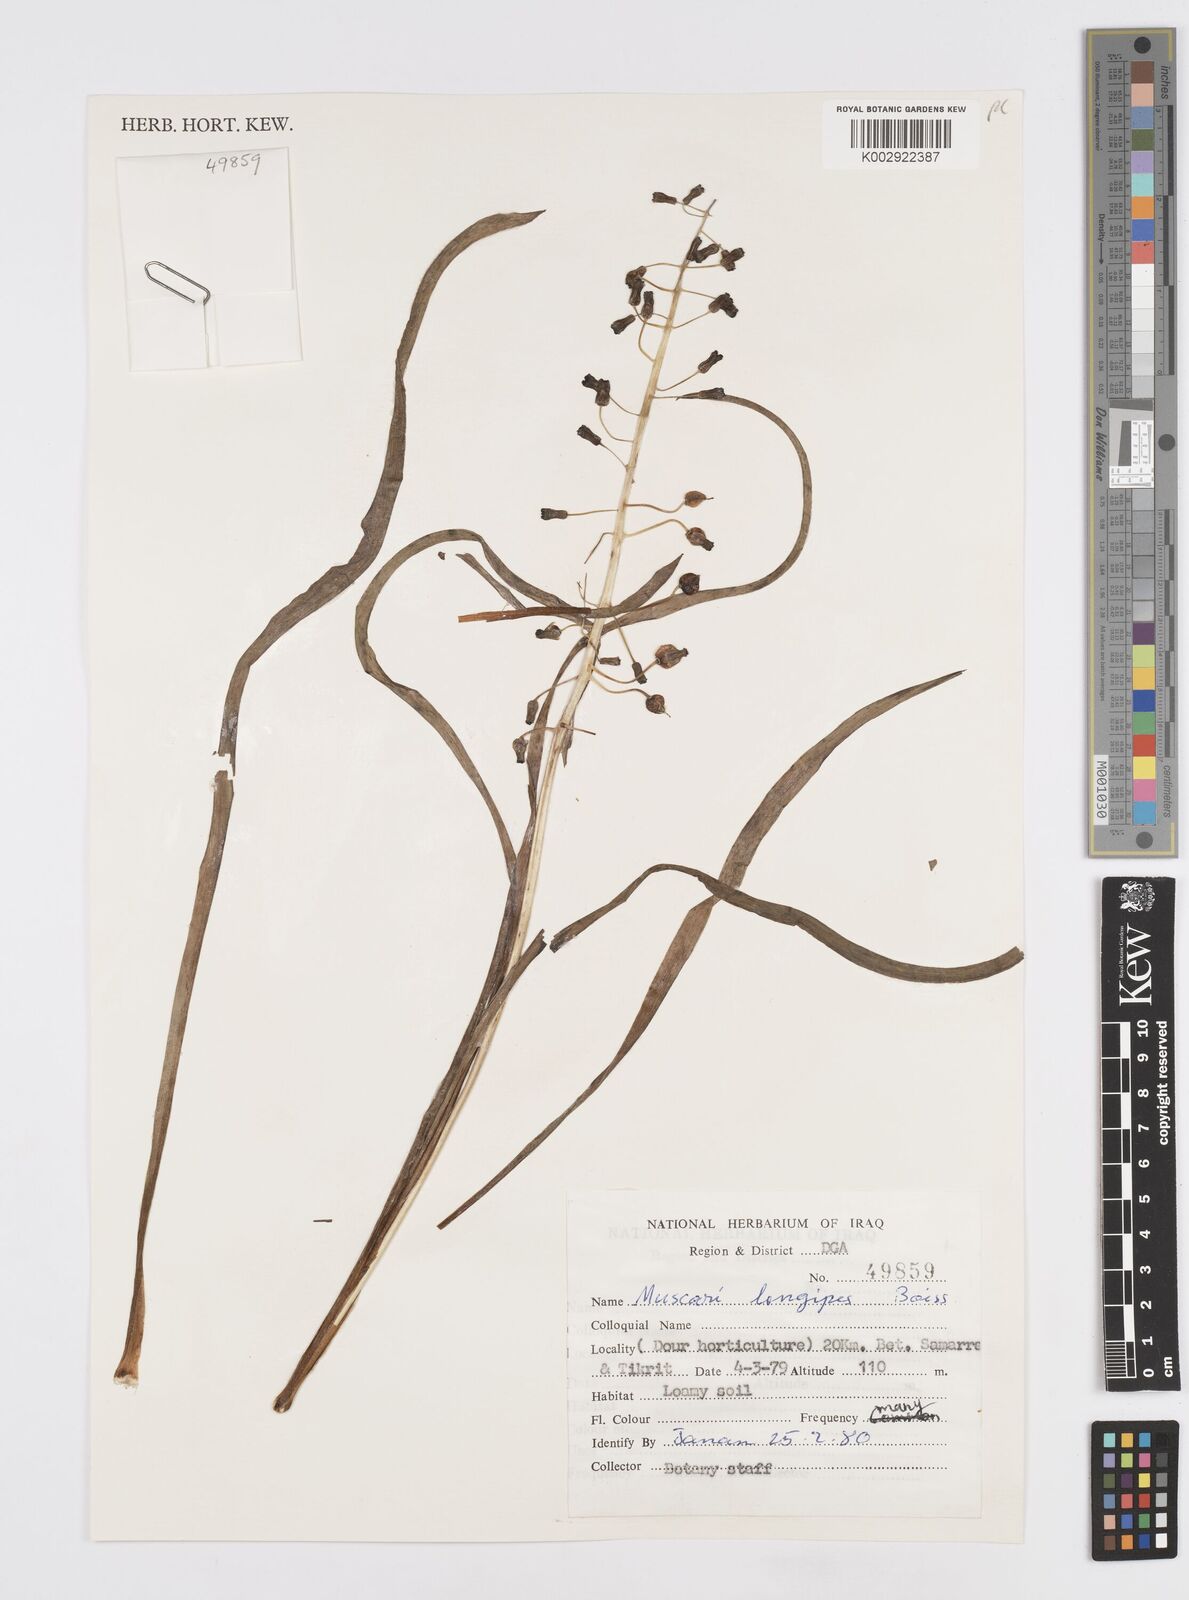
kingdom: Plantae
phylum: Tracheophyta
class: Liliopsida
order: Asparagales
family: Asparagaceae
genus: Muscari
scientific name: Muscari longipes
